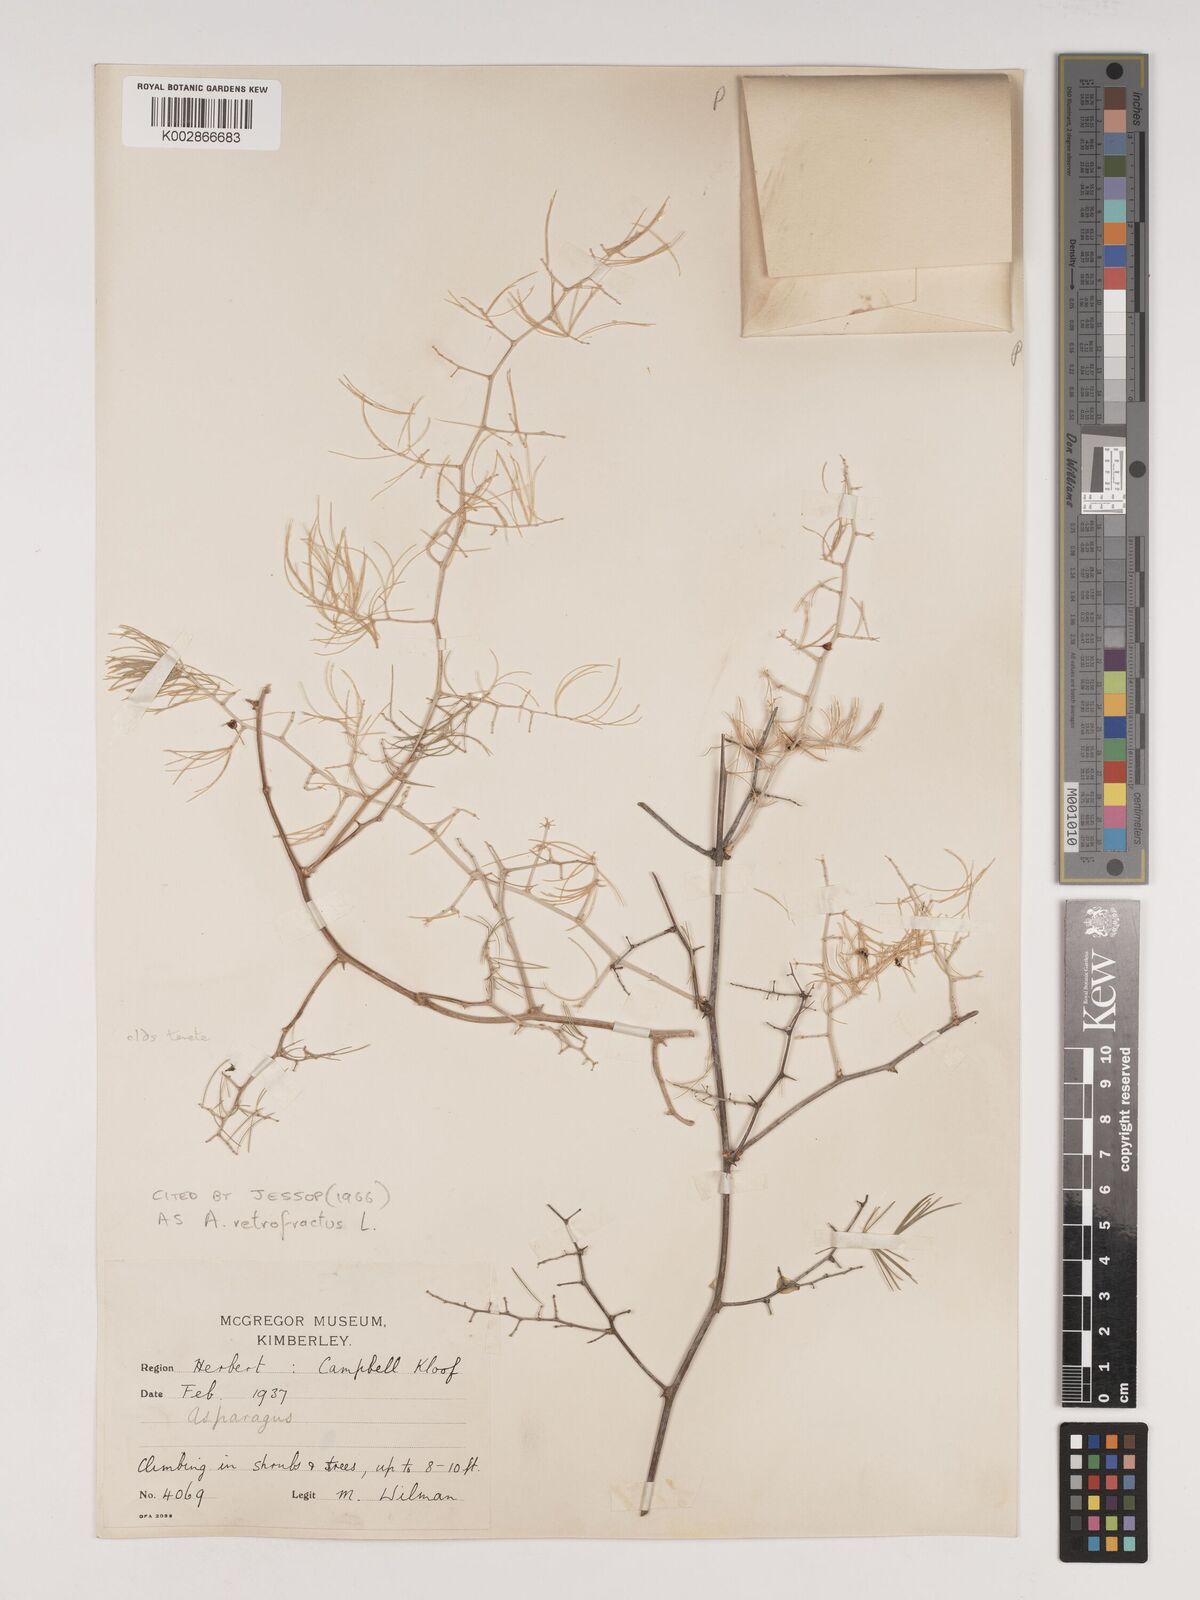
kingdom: Plantae
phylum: Tracheophyta
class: Liliopsida
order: Asparagales
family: Asparagaceae
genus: Asparagus
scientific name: Asparagus retrofractus
